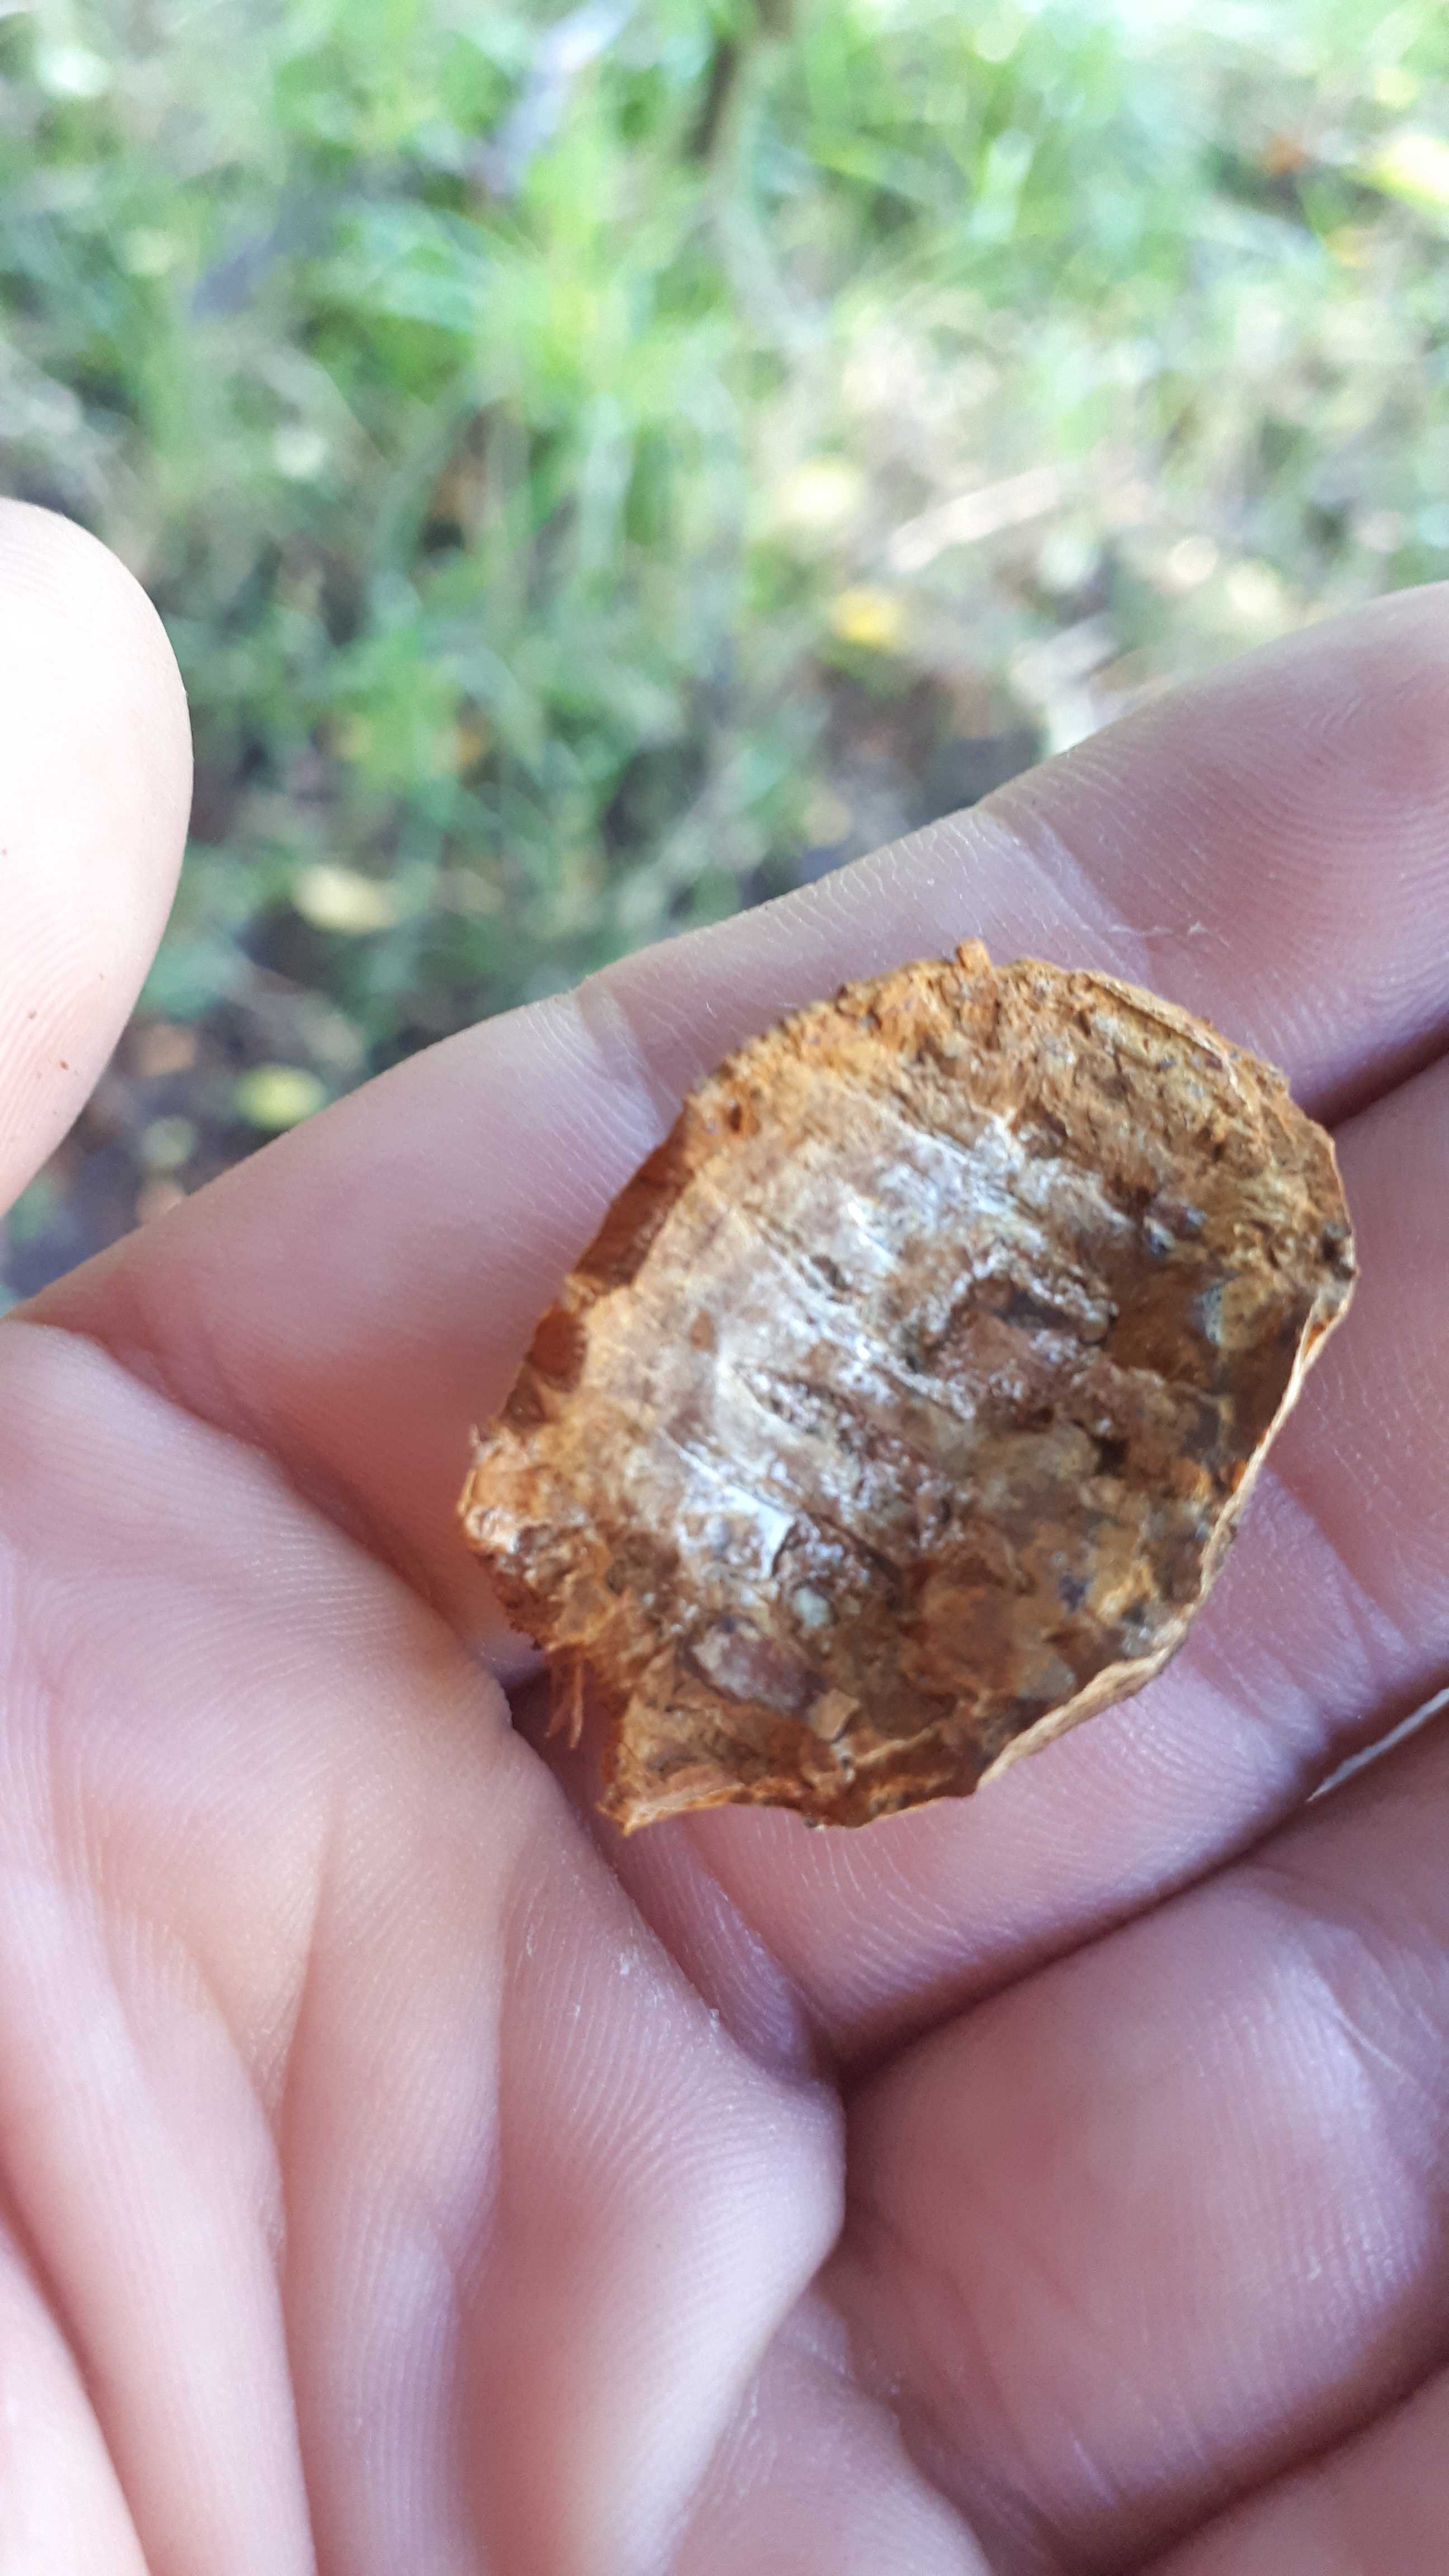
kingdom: Fungi
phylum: Basidiomycota
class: Agaricomycetes
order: Hymenochaetales
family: Hymenochaetaceae
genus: Phellinus
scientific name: Phellinus pomaceus
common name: blomme-ildporesvamp
